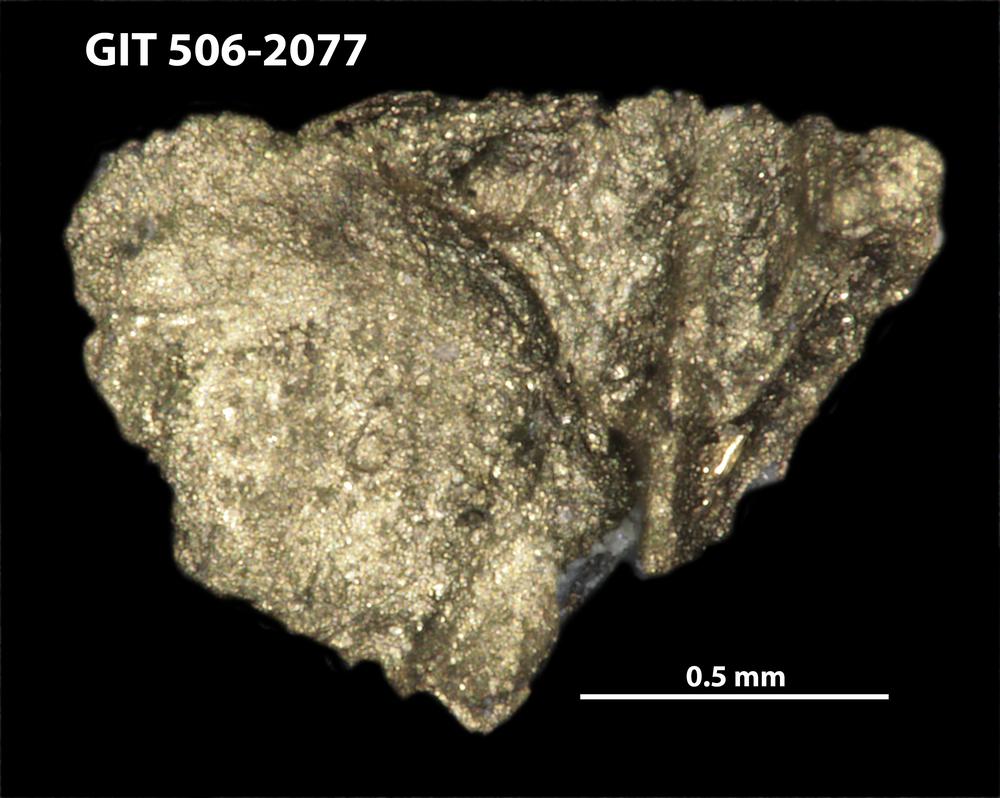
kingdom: Animalia
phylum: Brachiopoda
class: Rhynchonellata
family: Skenidiidae
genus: Skenidioides
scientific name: Skenidioides scoliodus
